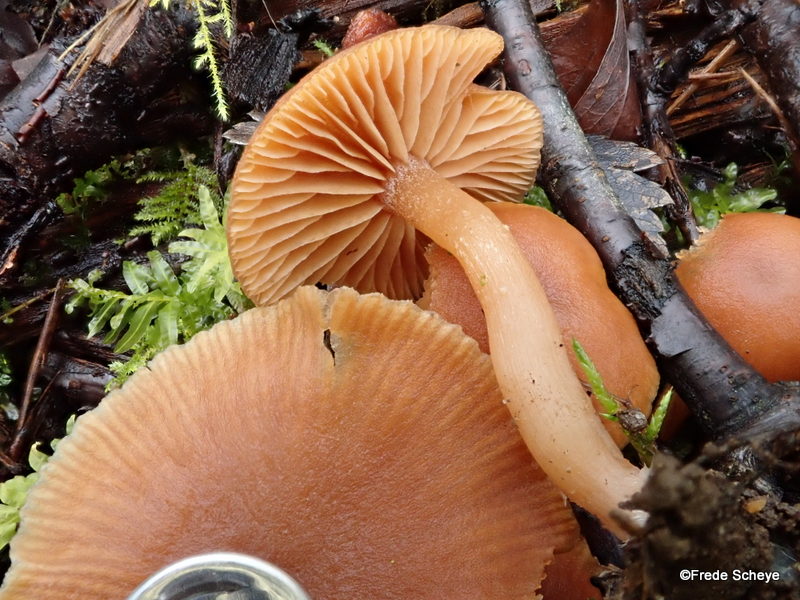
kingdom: Fungi
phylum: Basidiomycota
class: Agaricomycetes
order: Agaricales
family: Tubariaceae
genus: Tubaria
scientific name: Tubaria furfuracea
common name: kliddet fnughat
